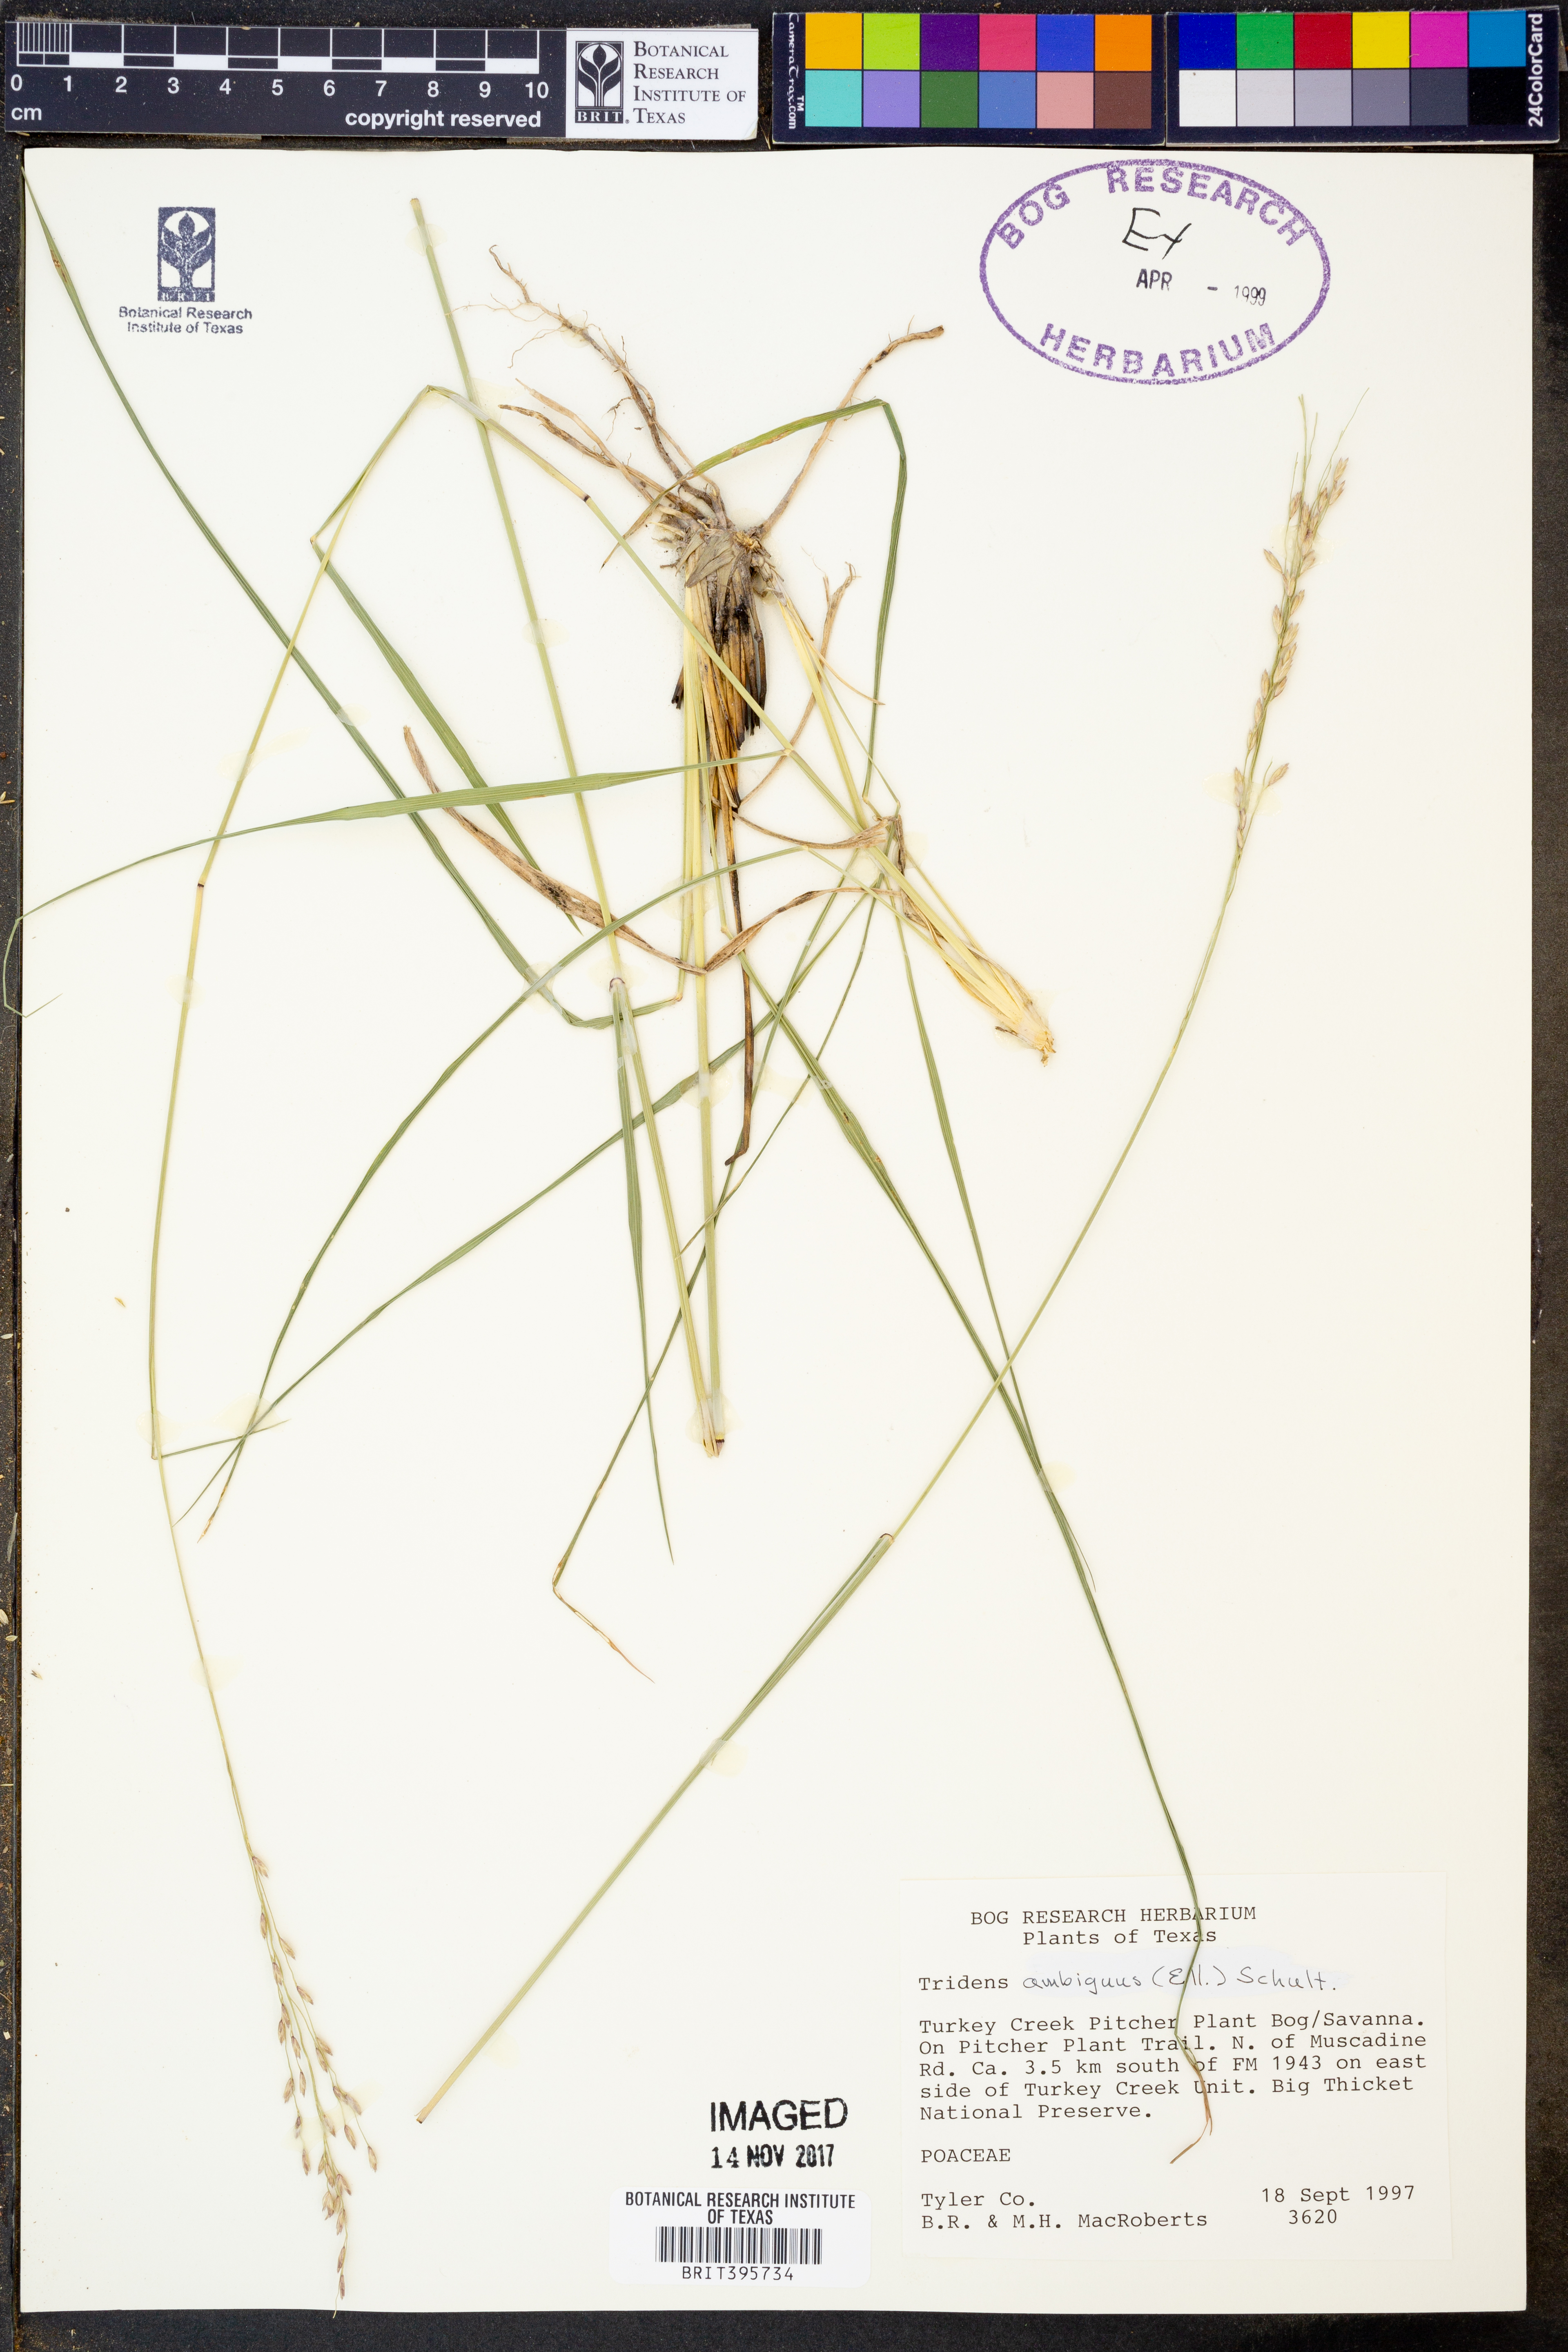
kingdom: Plantae
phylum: Tracheophyta
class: Liliopsida
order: Poales
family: Poaceae
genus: Tridens
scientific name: Tridens ambiguus
